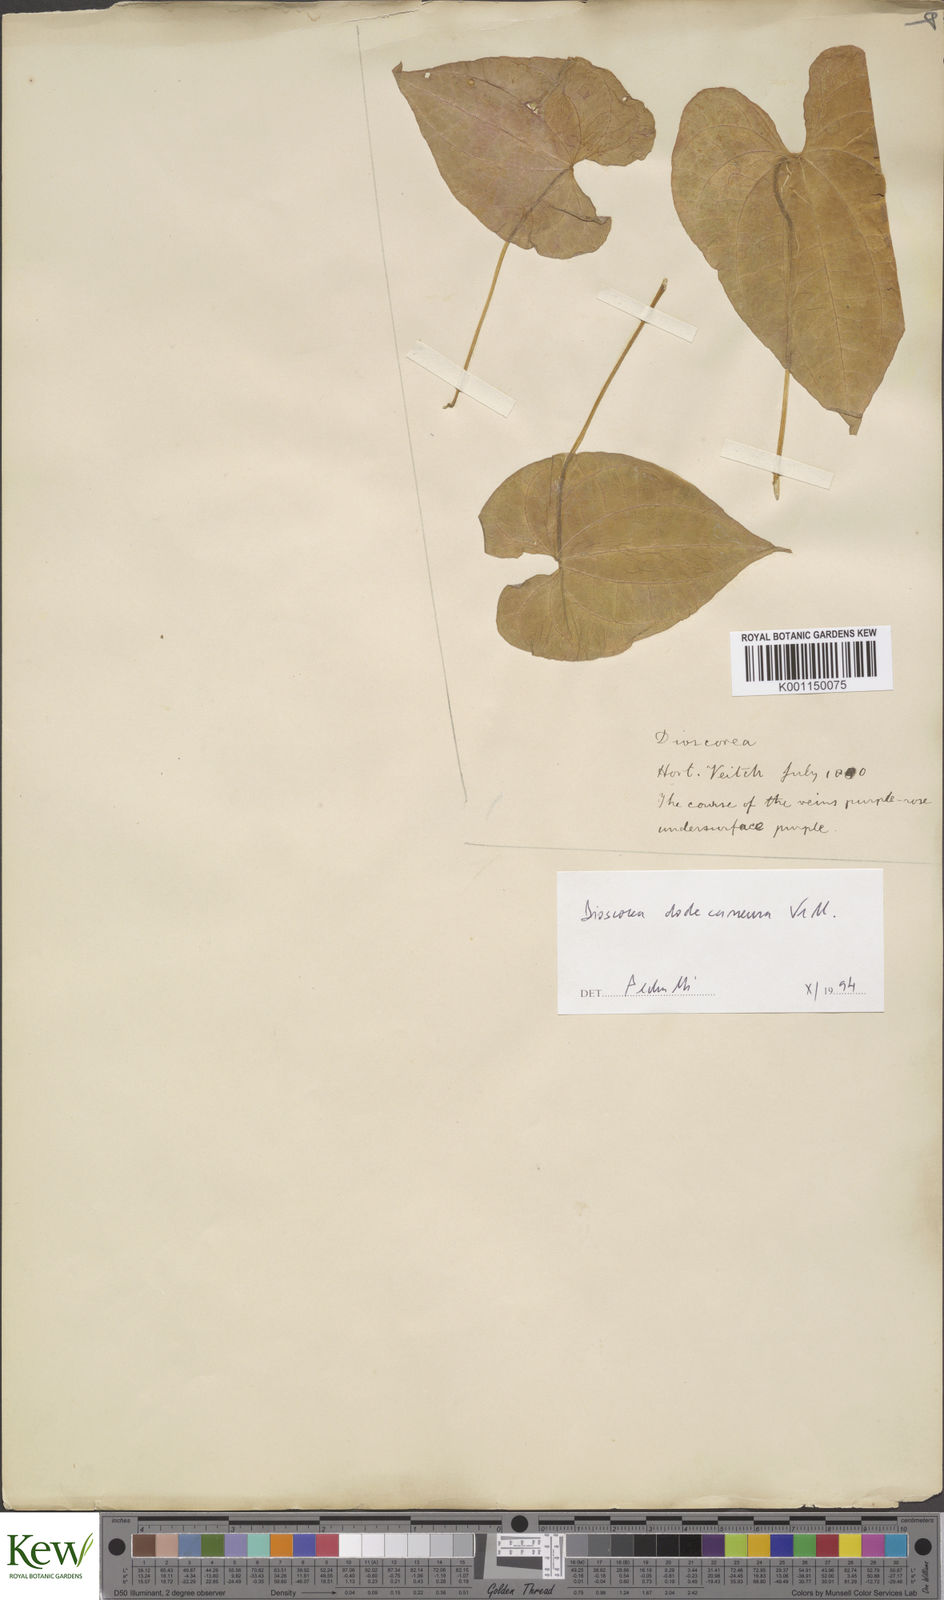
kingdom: Plantae
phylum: Tracheophyta
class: Liliopsida
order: Dioscoreales
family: Dioscoreaceae
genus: Dioscorea
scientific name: Dioscorea dodecaneura
